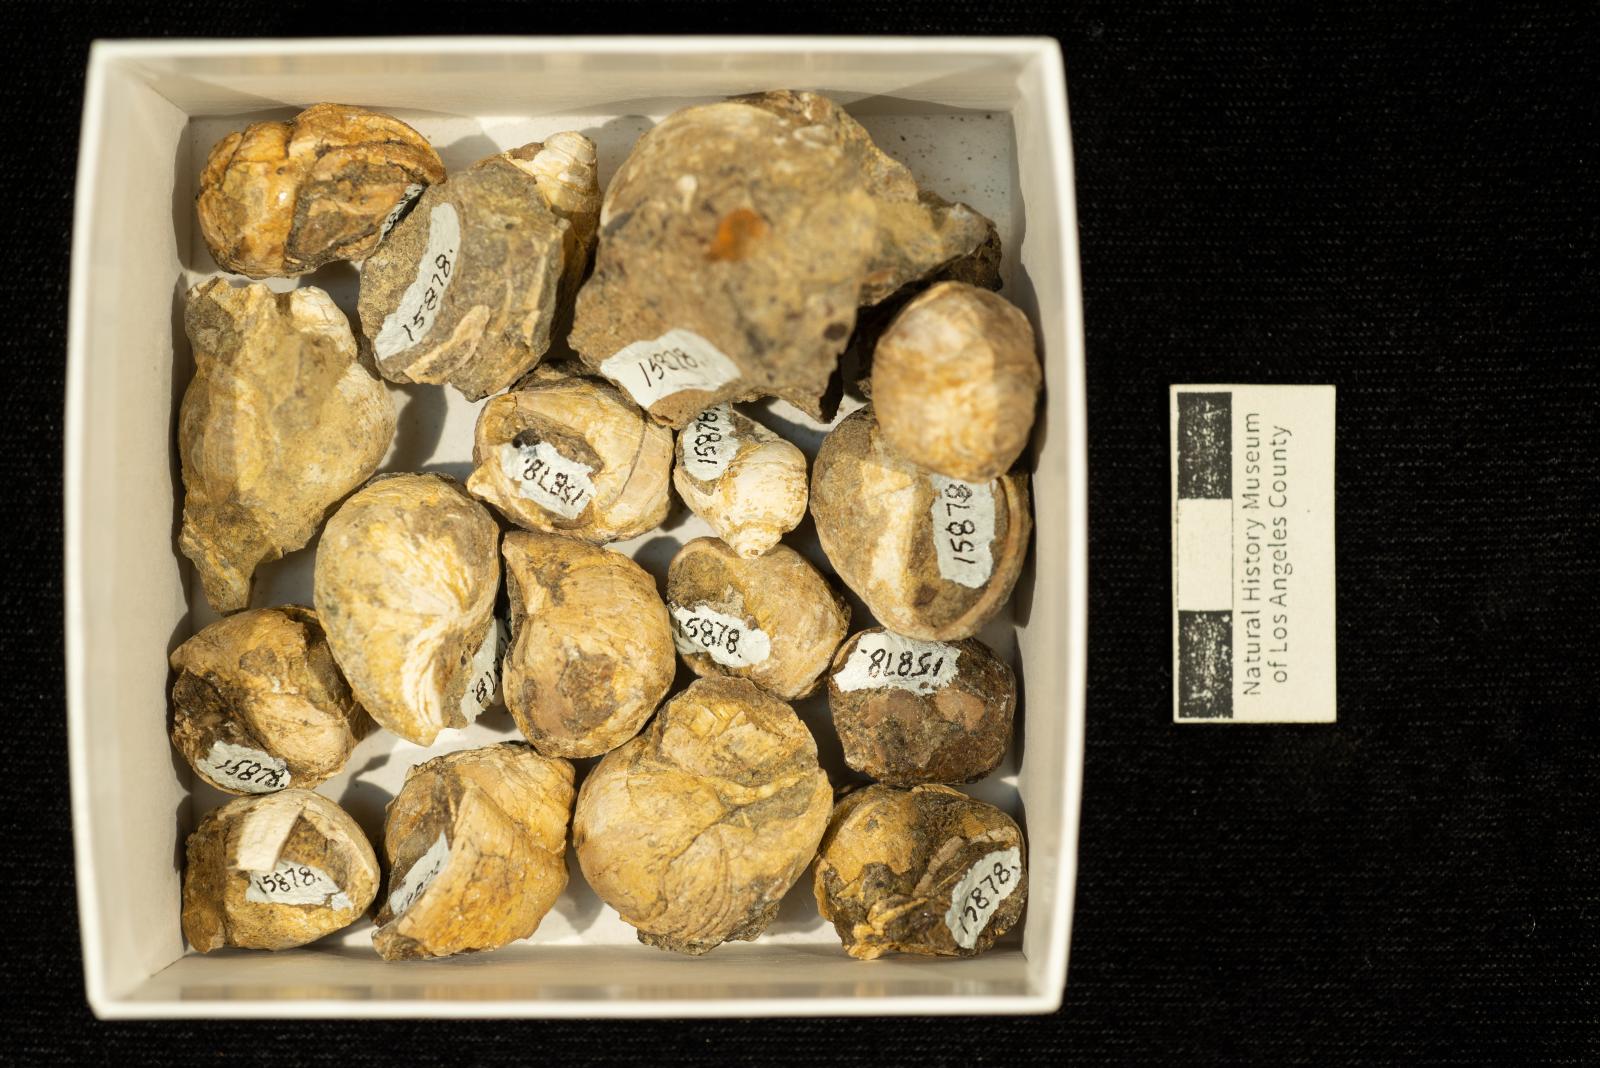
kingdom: Animalia
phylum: Mollusca
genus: Ampullina
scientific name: Ampullina
